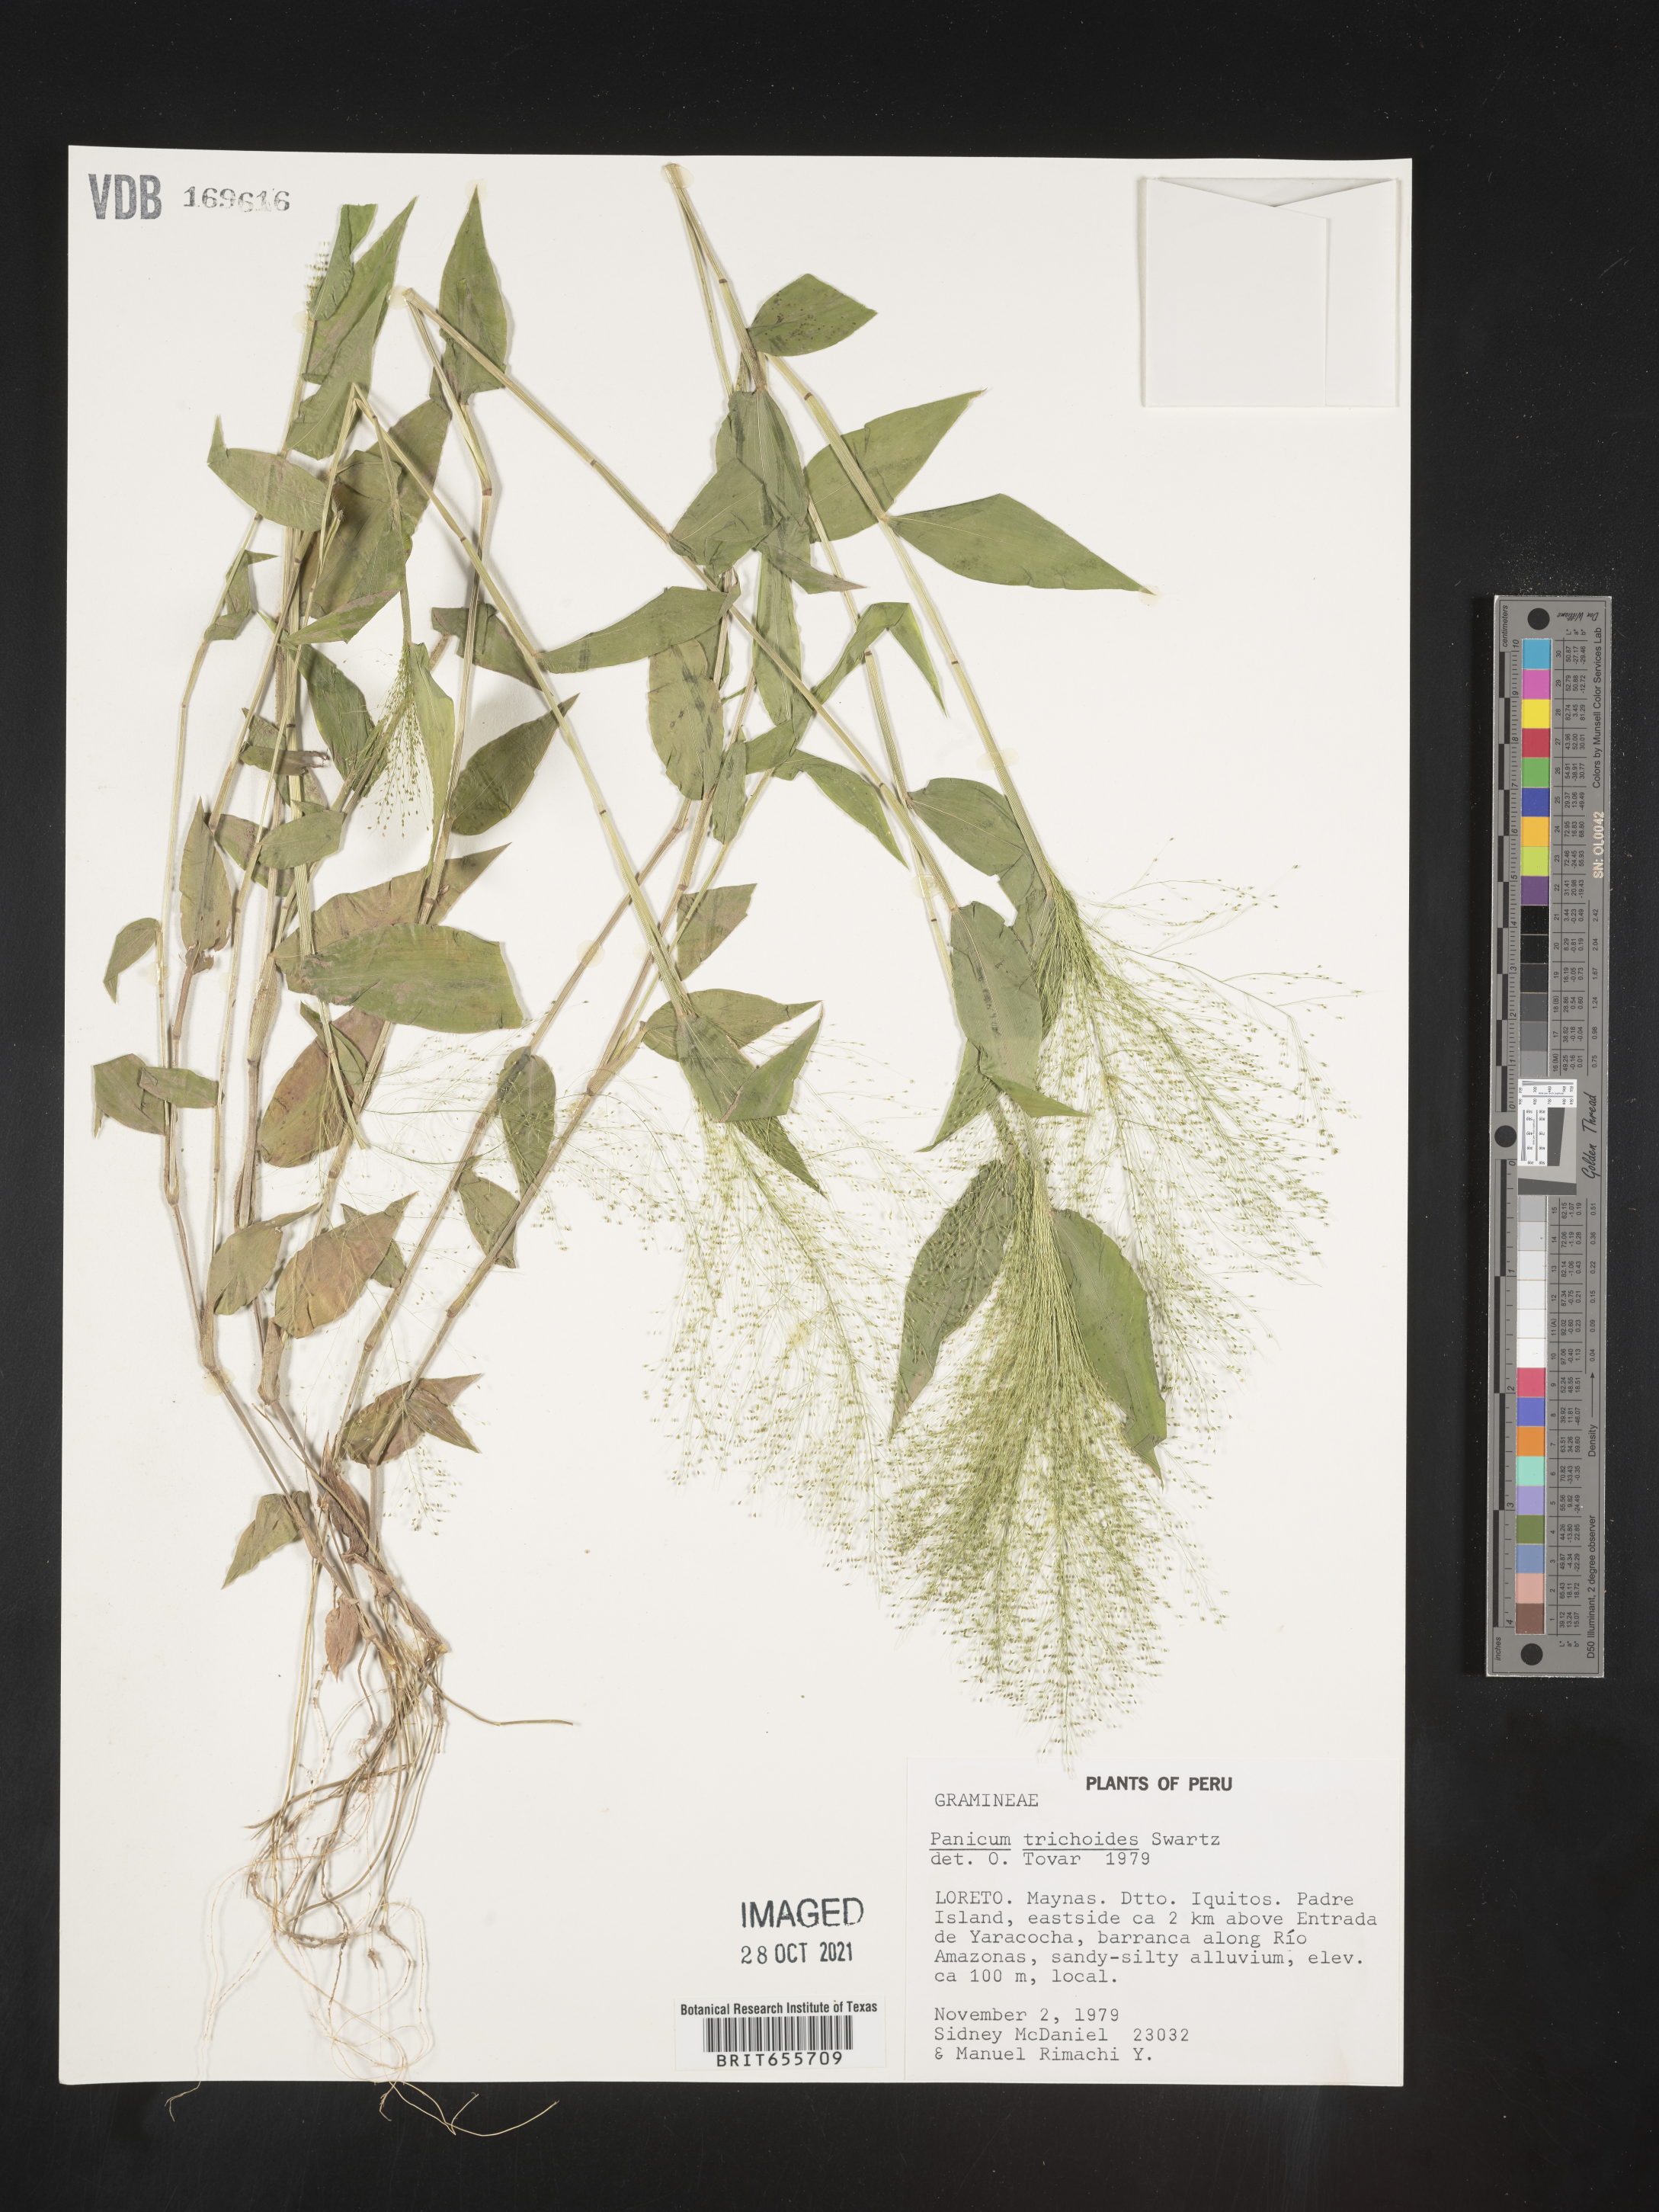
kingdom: Plantae
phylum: Tracheophyta
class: Liliopsida
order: Poales
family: Poaceae
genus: Panicum
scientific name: Panicum
